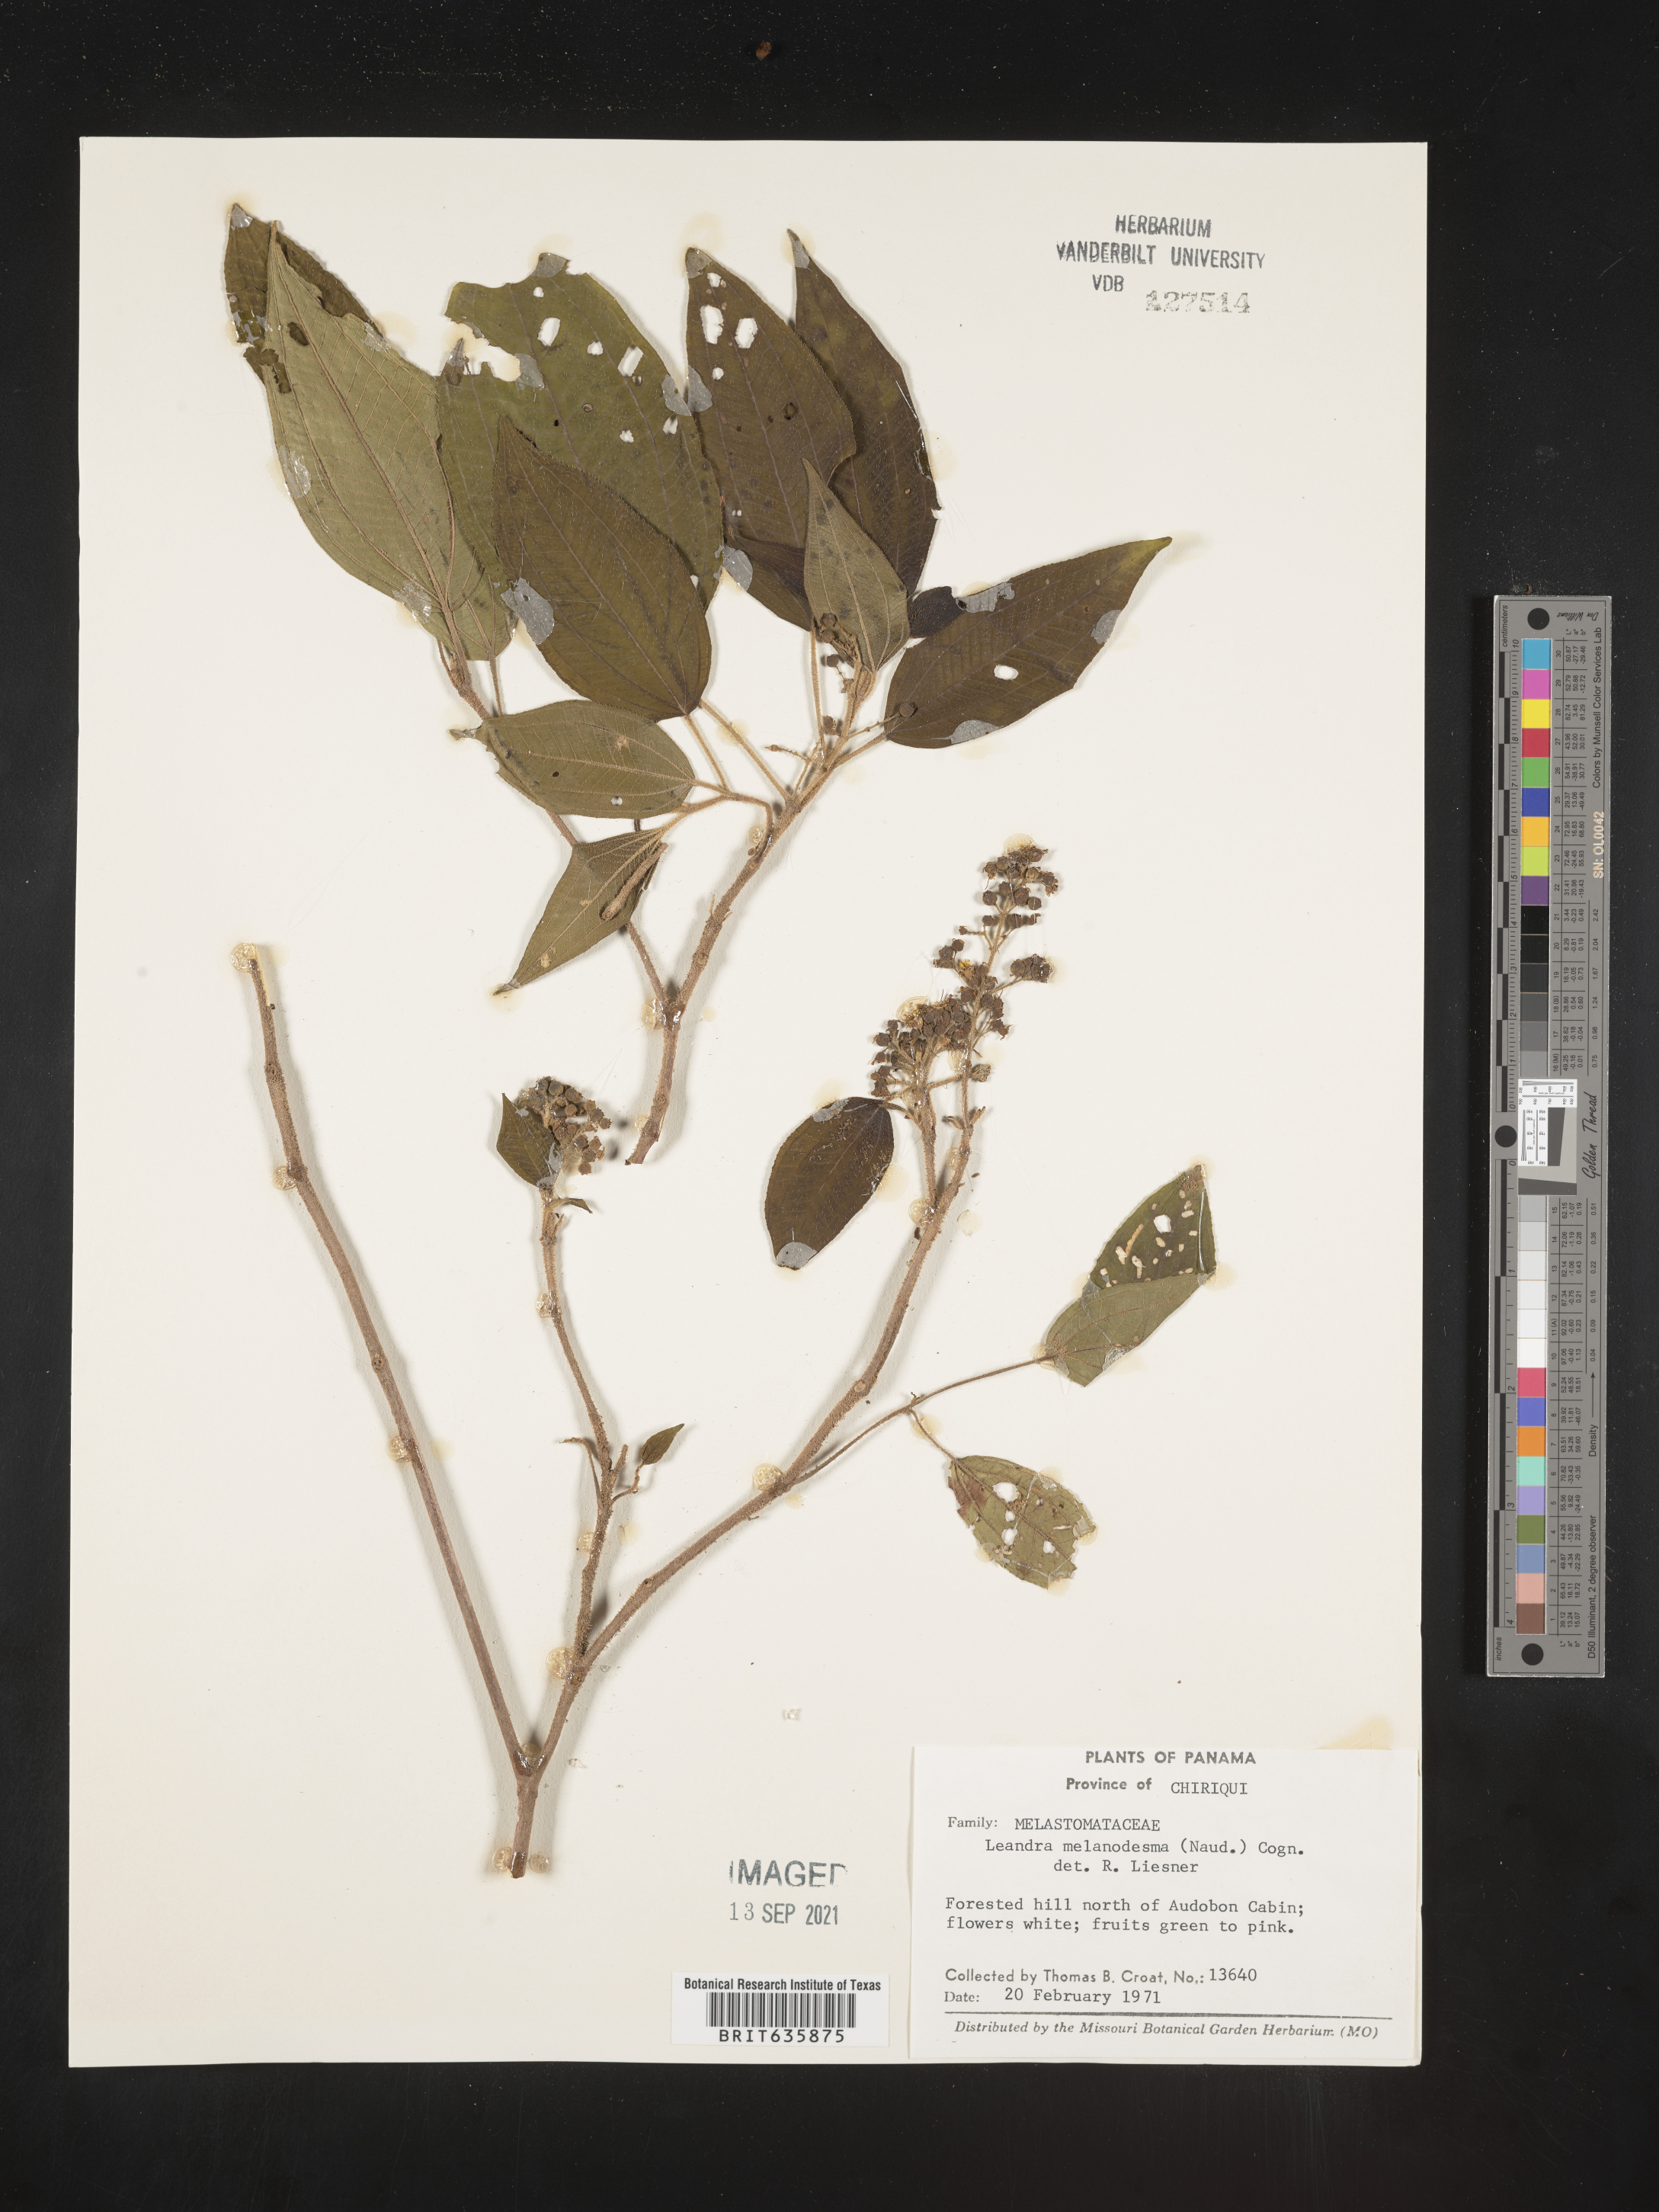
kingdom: Plantae
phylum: Tracheophyta
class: Magnoliopsida
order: Myrtales
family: Melastomataceae
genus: Miconia
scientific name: Miconia
